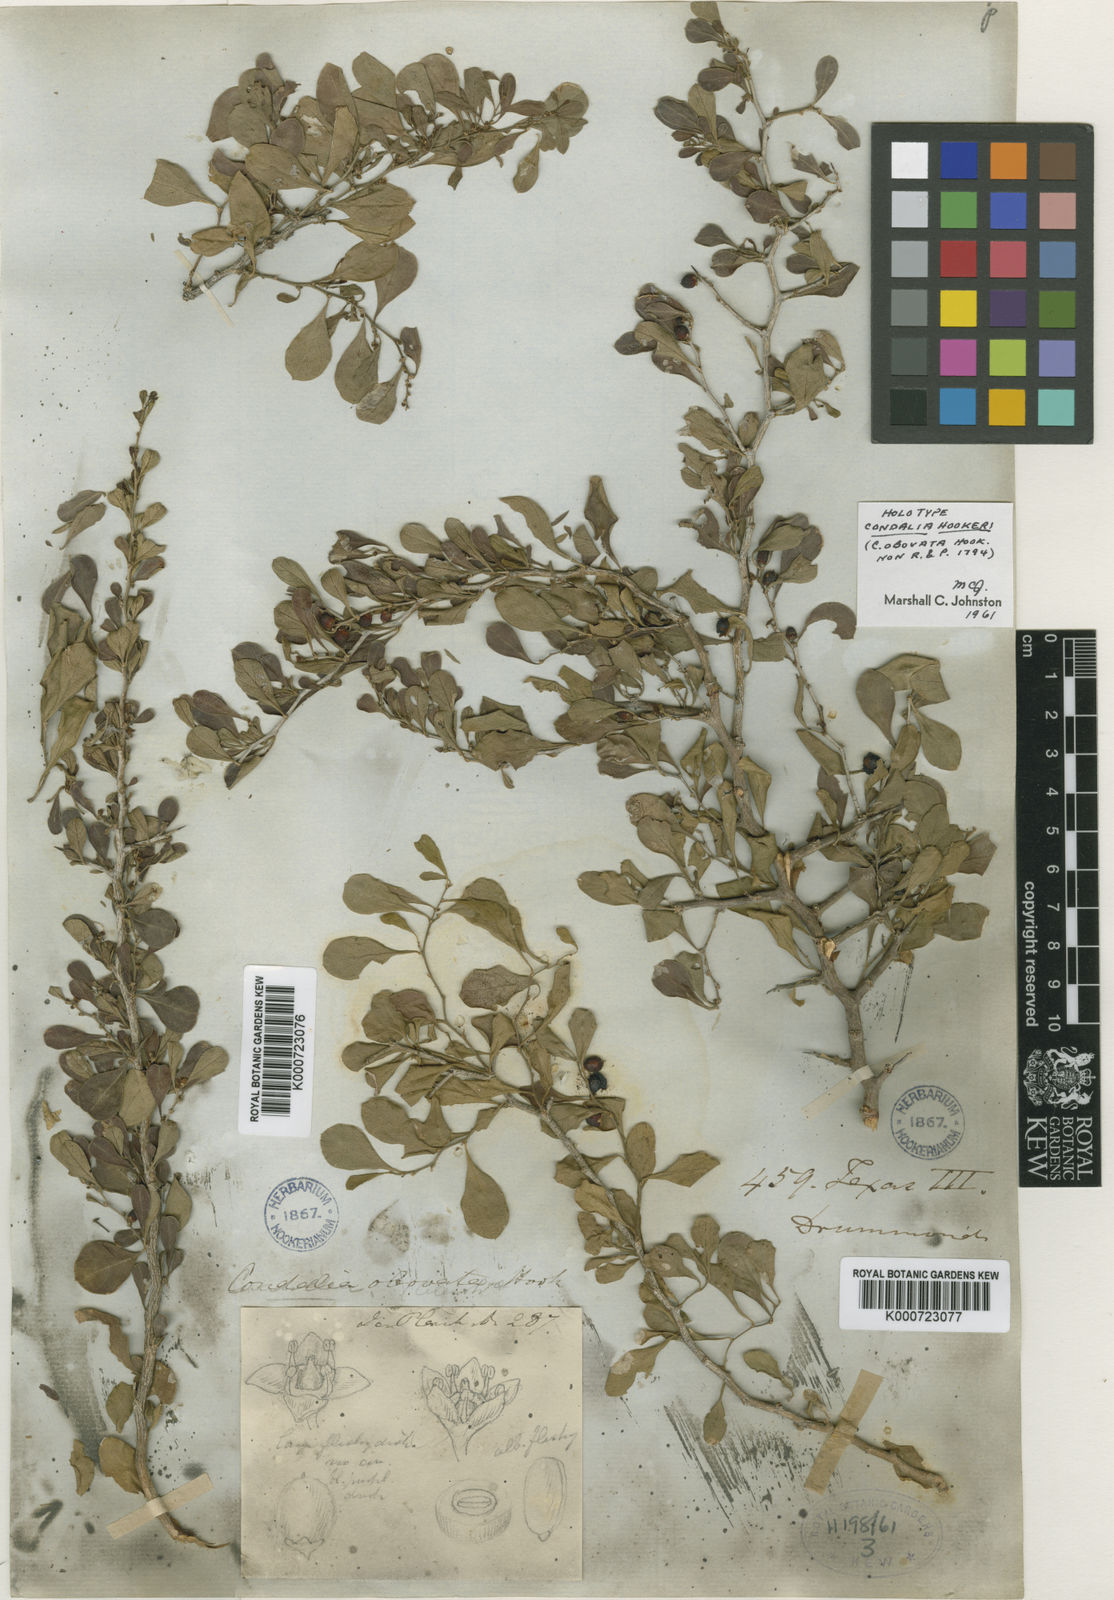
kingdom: Plantae
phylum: Tracheophyta
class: Magnoliopsida
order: Rosales
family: Rhamnaceae
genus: Condalia
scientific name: Condalia hookeri
